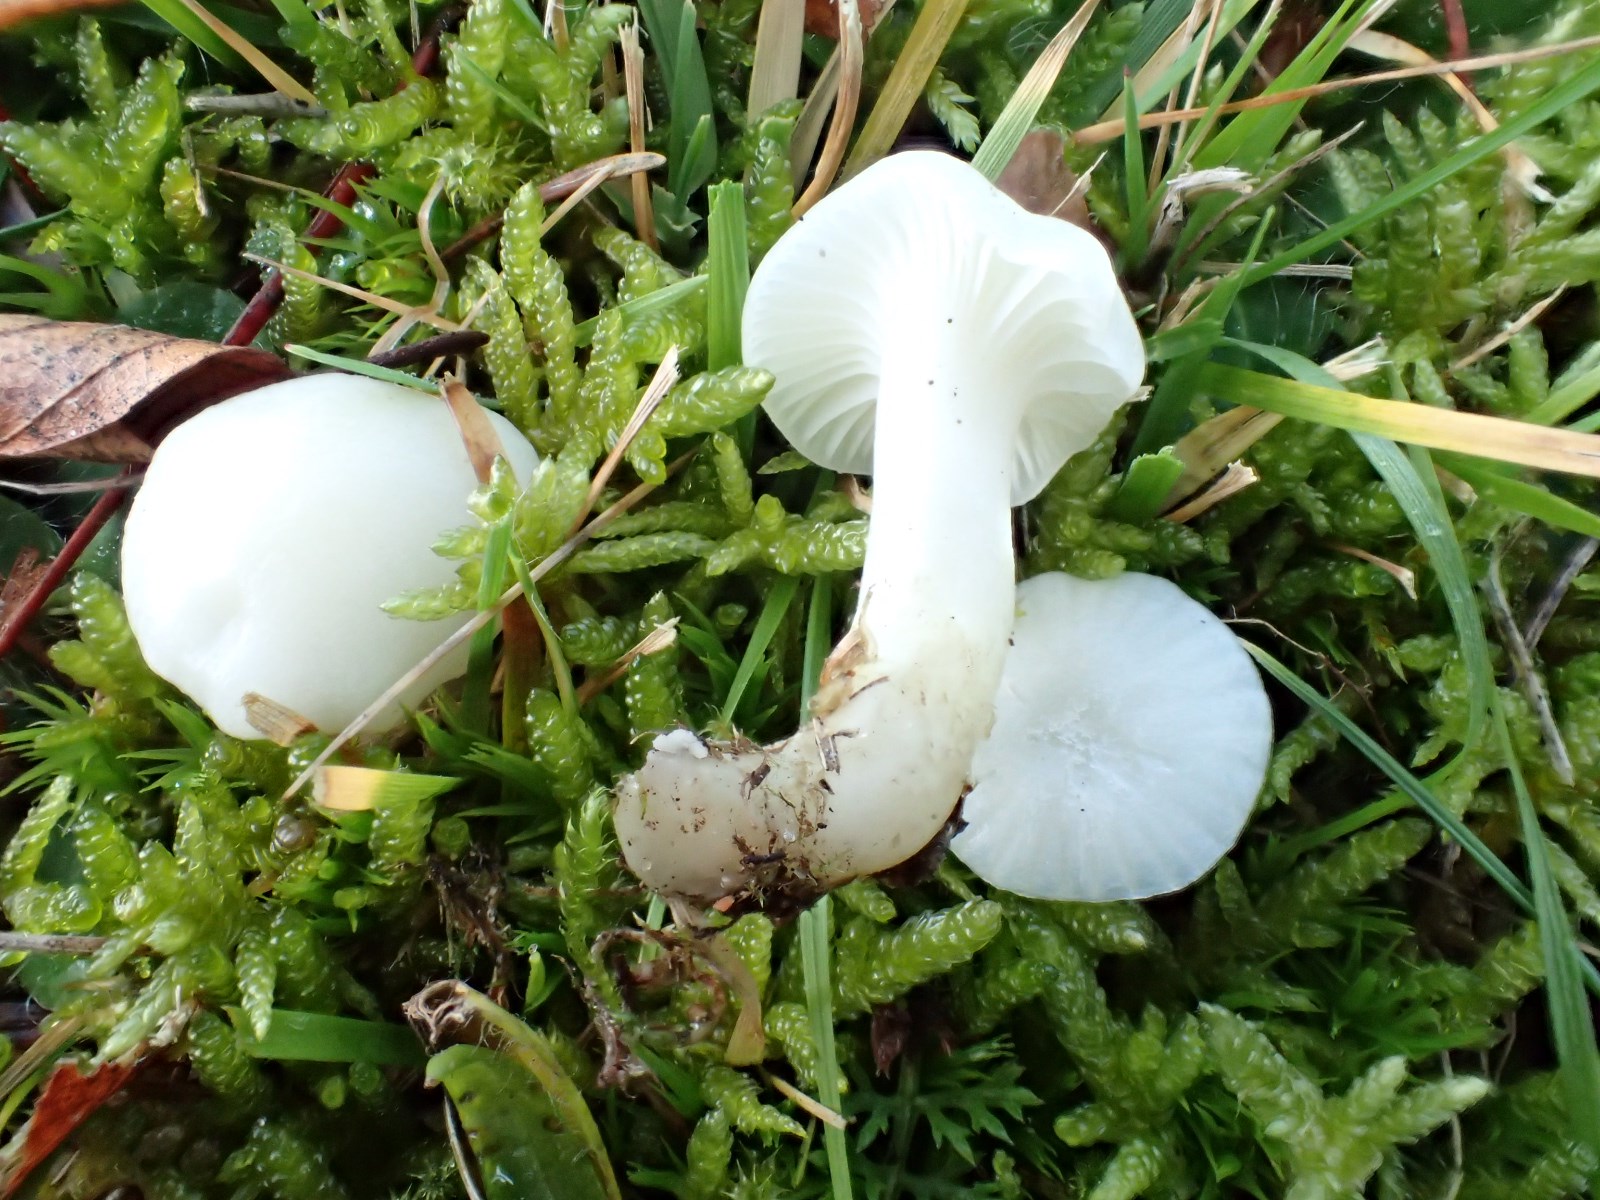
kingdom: Fungi
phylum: Basidiomycota
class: Agaricomycetes
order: Agaricales
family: Hygrophoraceae
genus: Cuphophyllus
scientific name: Cuphophyllus virgineus
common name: snehvid vokshat
